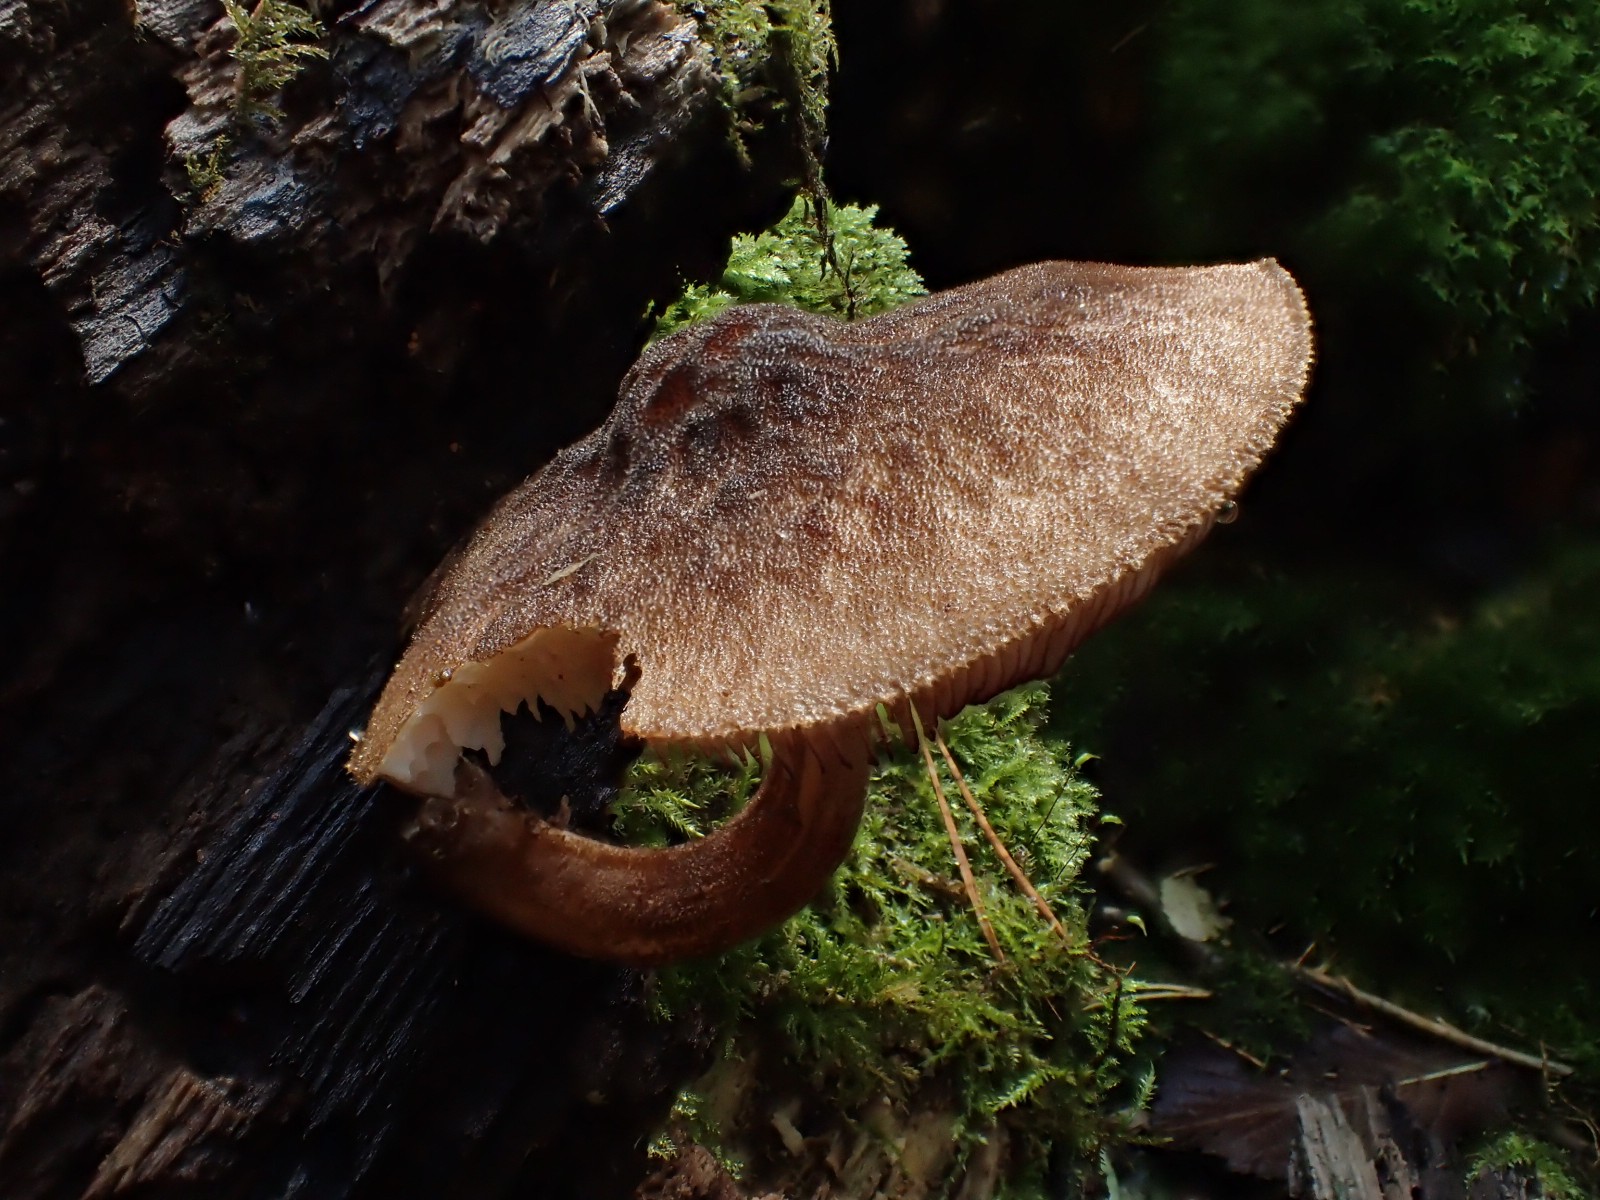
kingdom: Fungi
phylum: Basidiomycota
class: Agaricomycetes
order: Agaricales
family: Pluteaceae
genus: Pluteus
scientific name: Pluteus umbrosus
